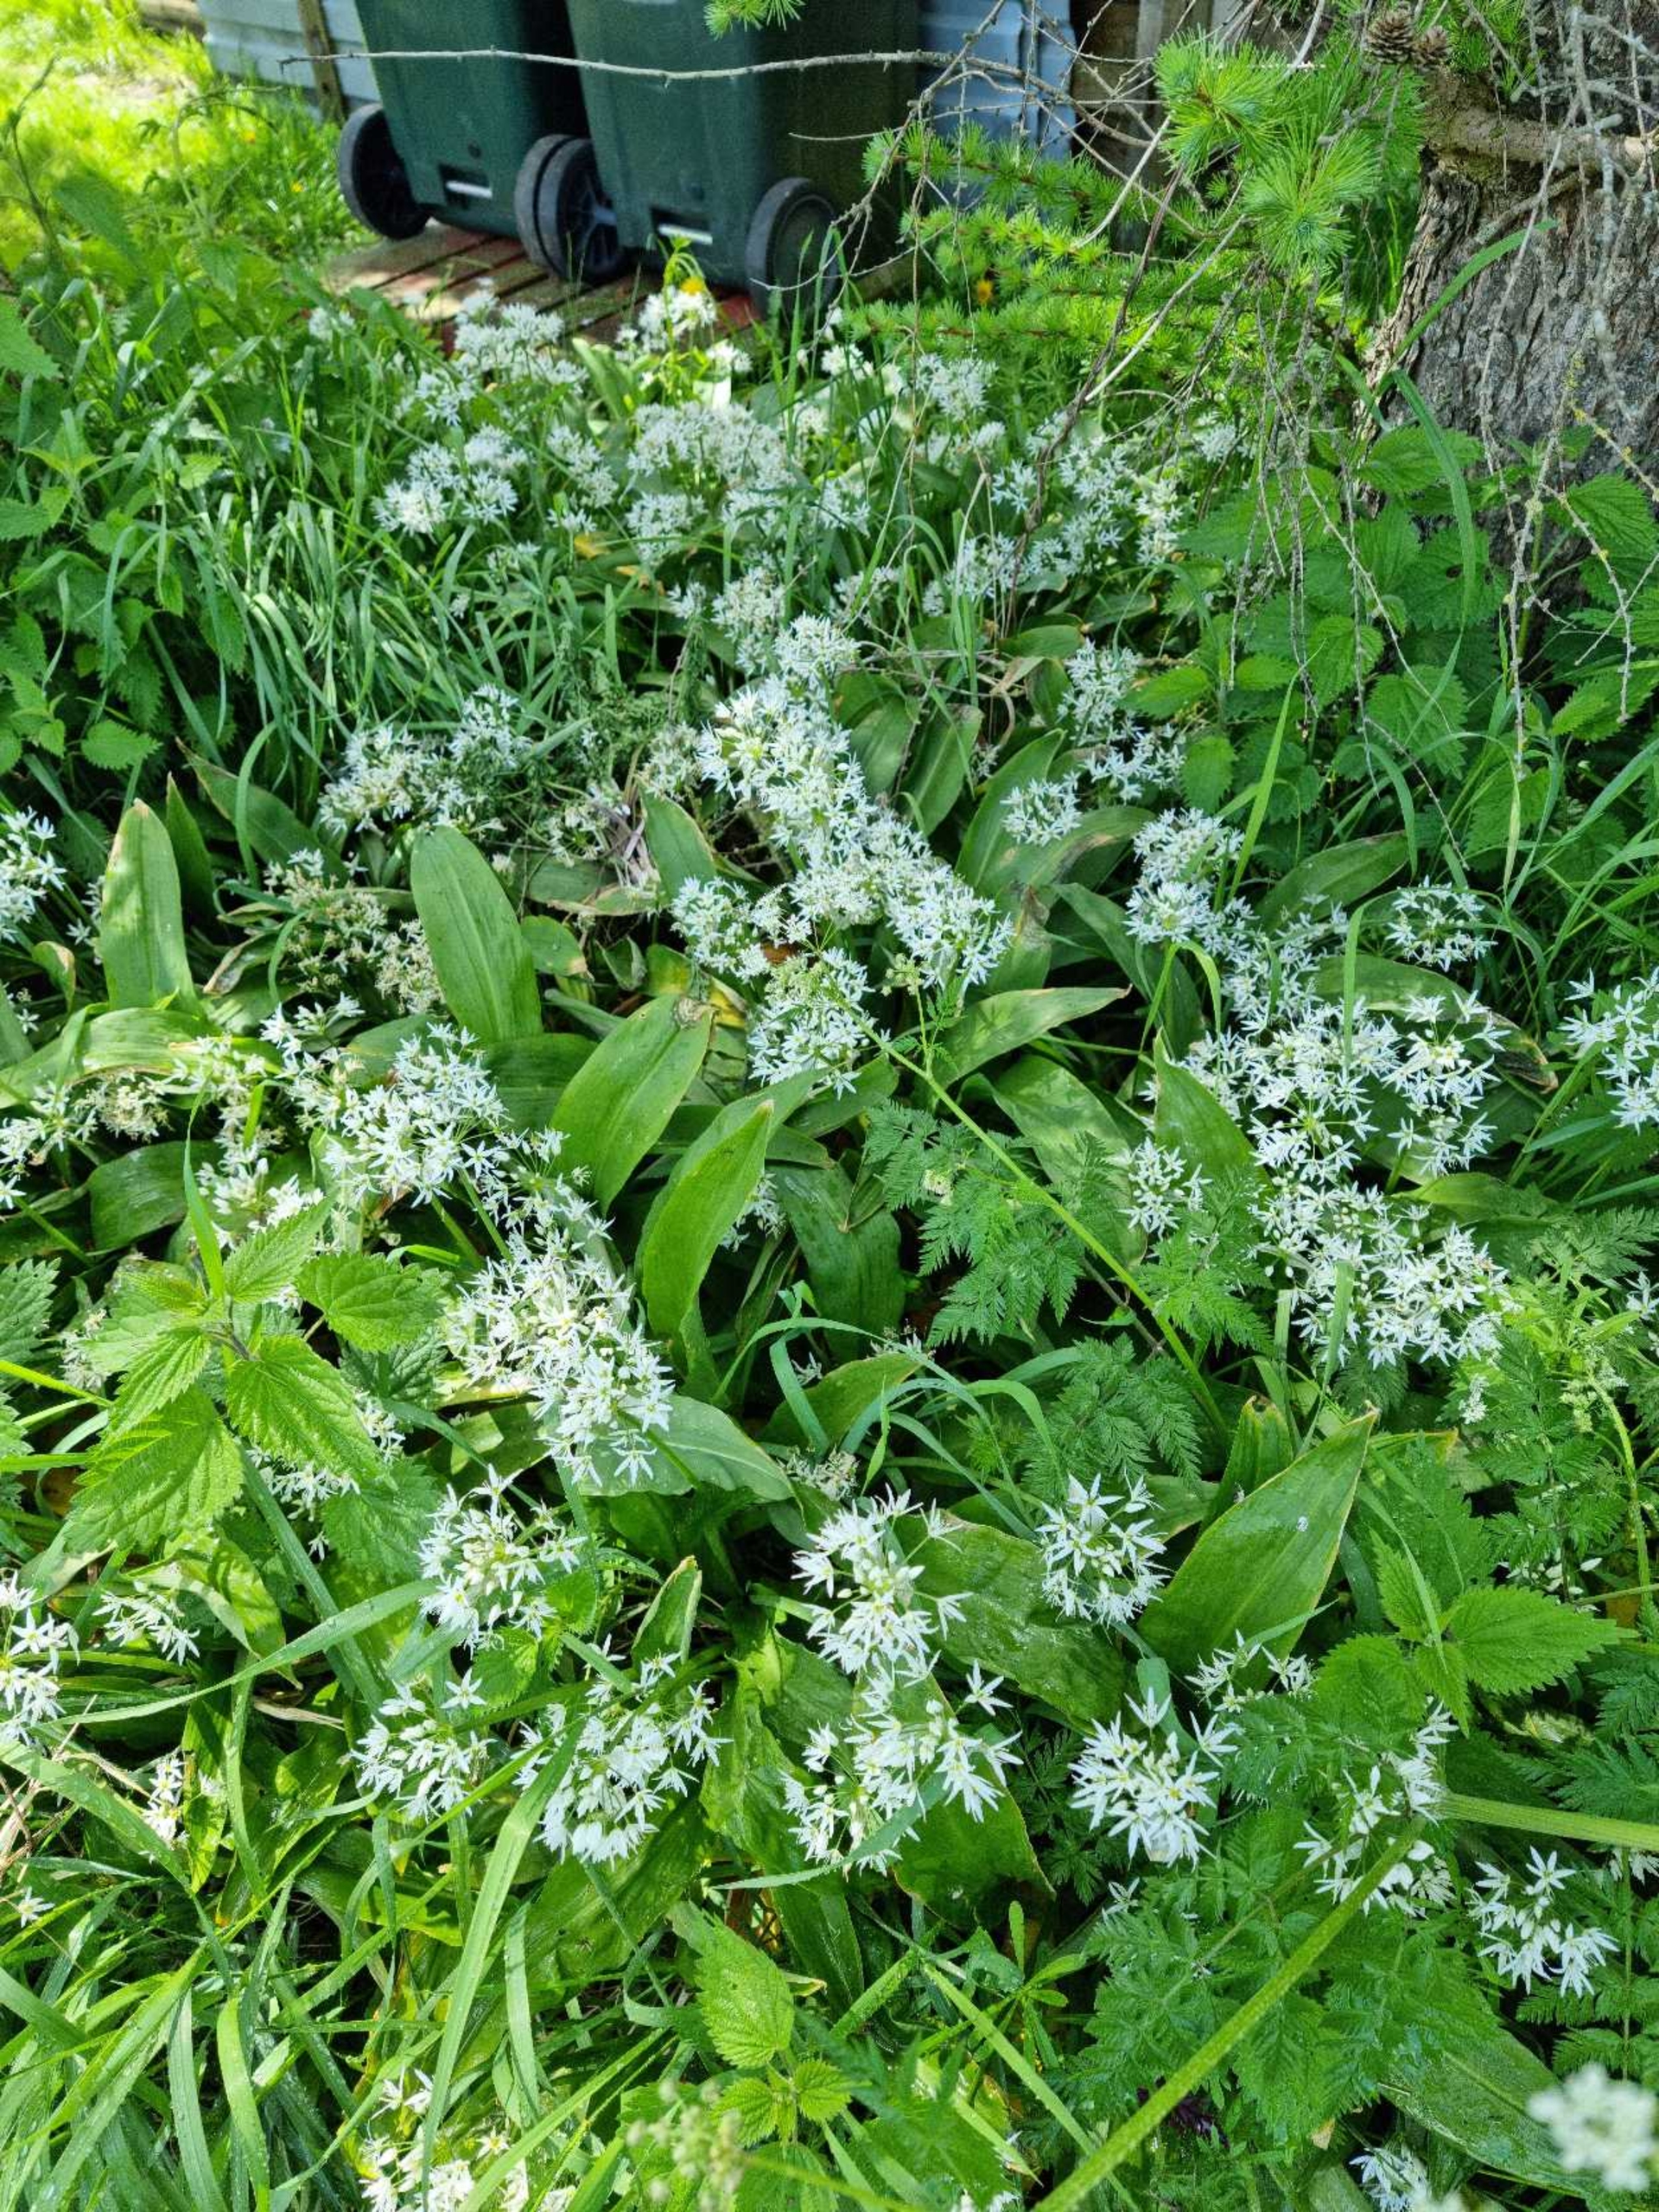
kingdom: Plantae
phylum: Tracheophyta
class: Liliopsida
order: Asparagales
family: Amaryllidaceae
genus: Allium
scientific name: Allium ursinum
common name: Rams-løg
